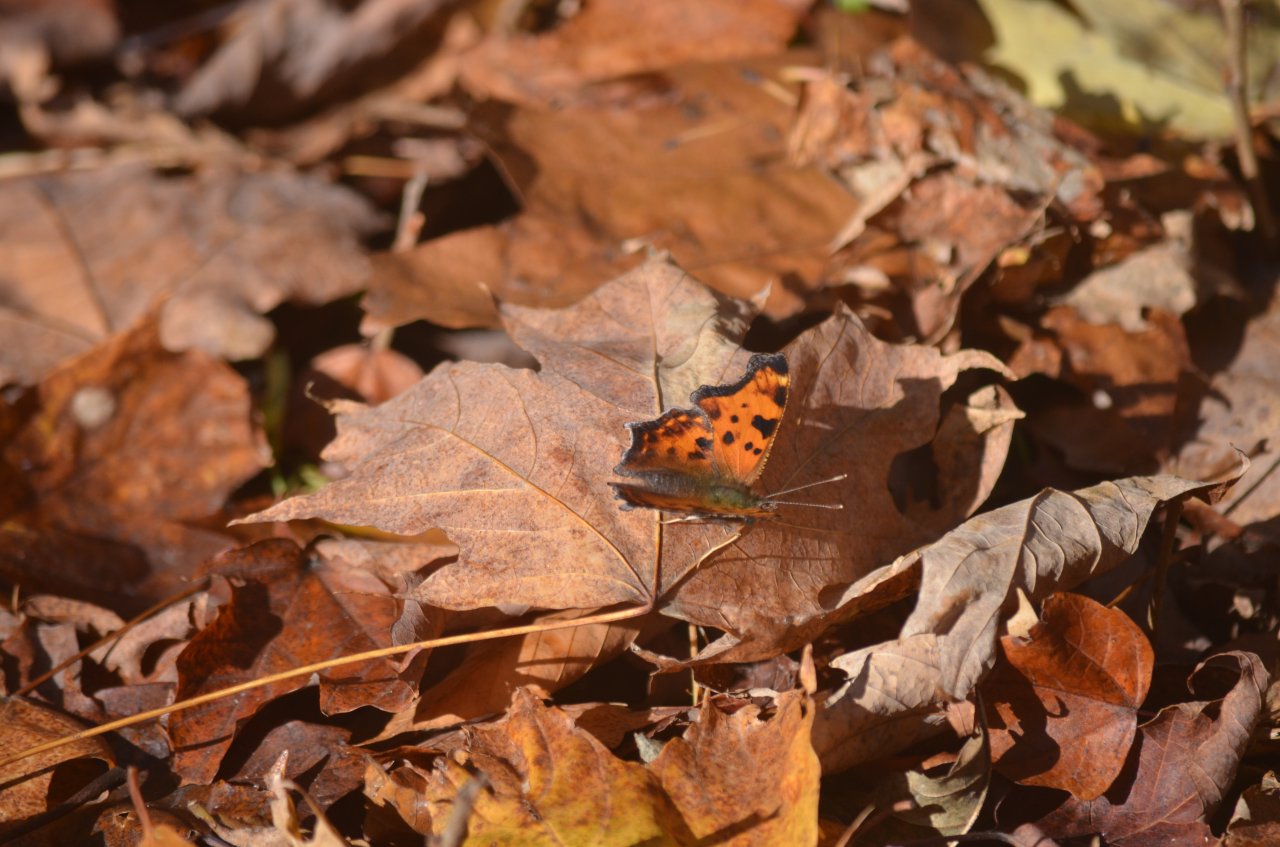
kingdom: Animalia
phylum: Arthropoda
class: Insecta
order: Lepidoptera
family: Nymphalidae
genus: Polygonia
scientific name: Polygonia comma
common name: Eastern Comma
